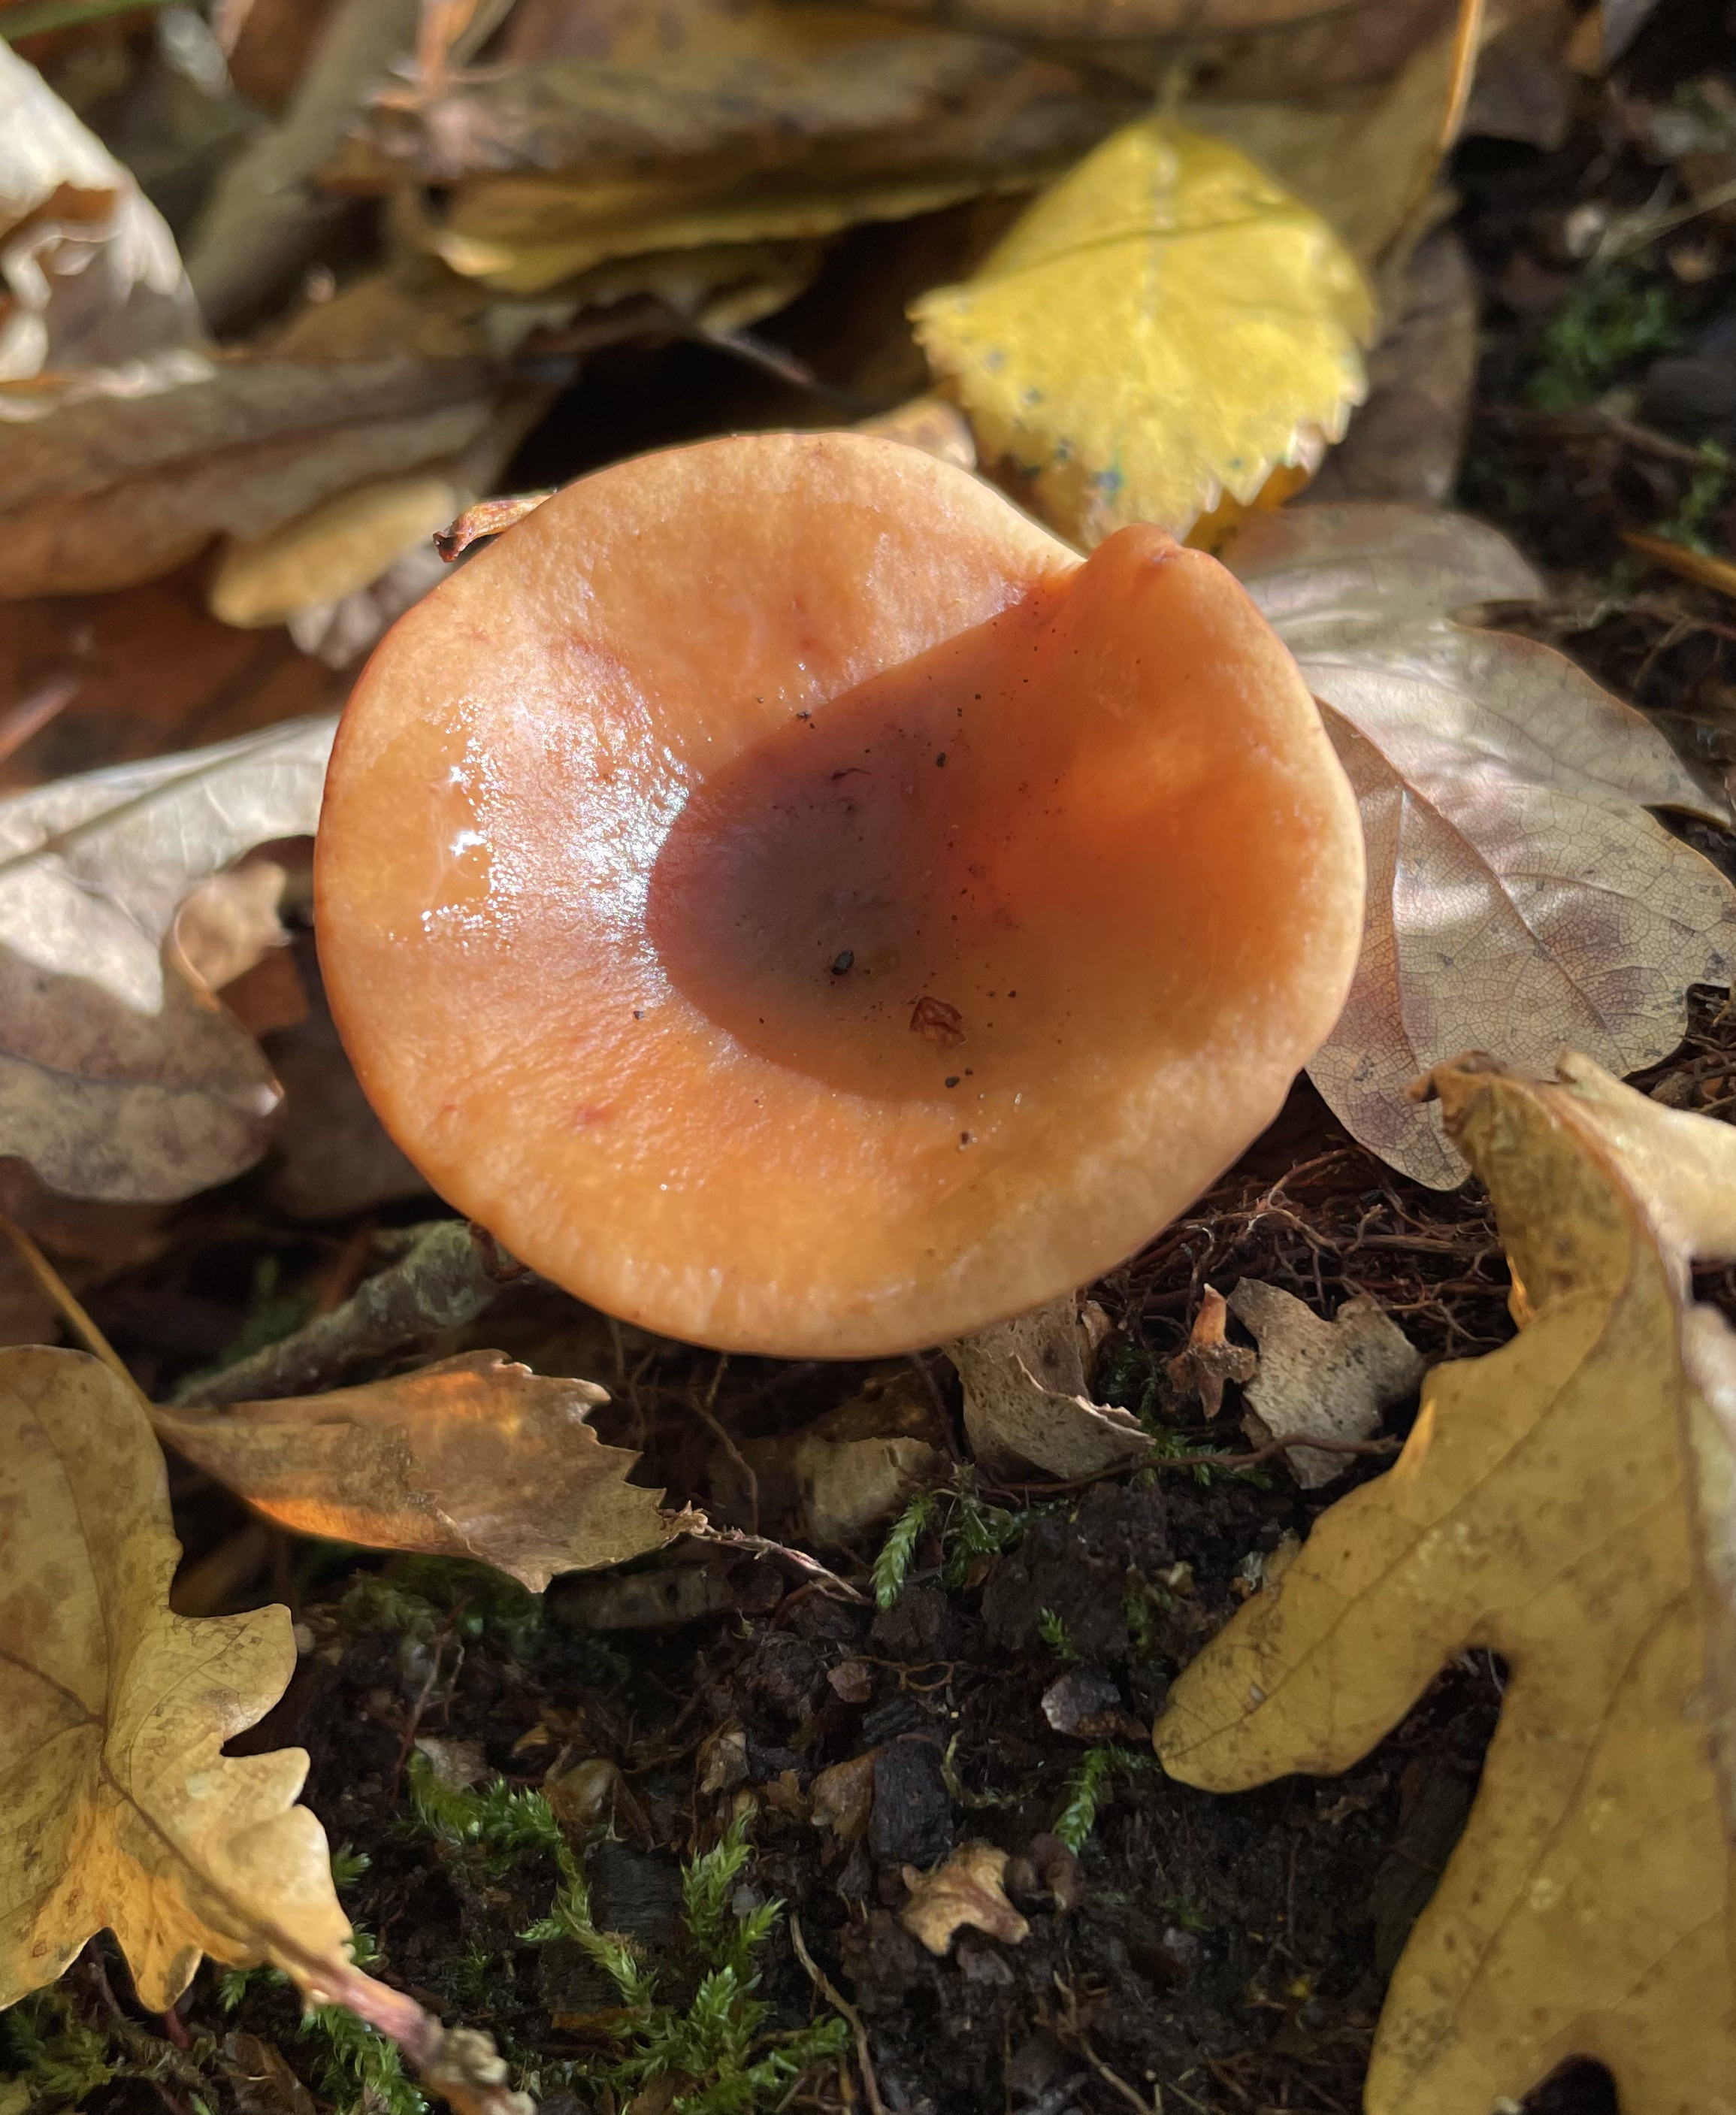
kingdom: Fungi
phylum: Basidiomycota
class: Agaricomycetes
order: Russulales
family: Russulaceae
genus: Lactarius
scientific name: Lactarius
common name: mælkehat
